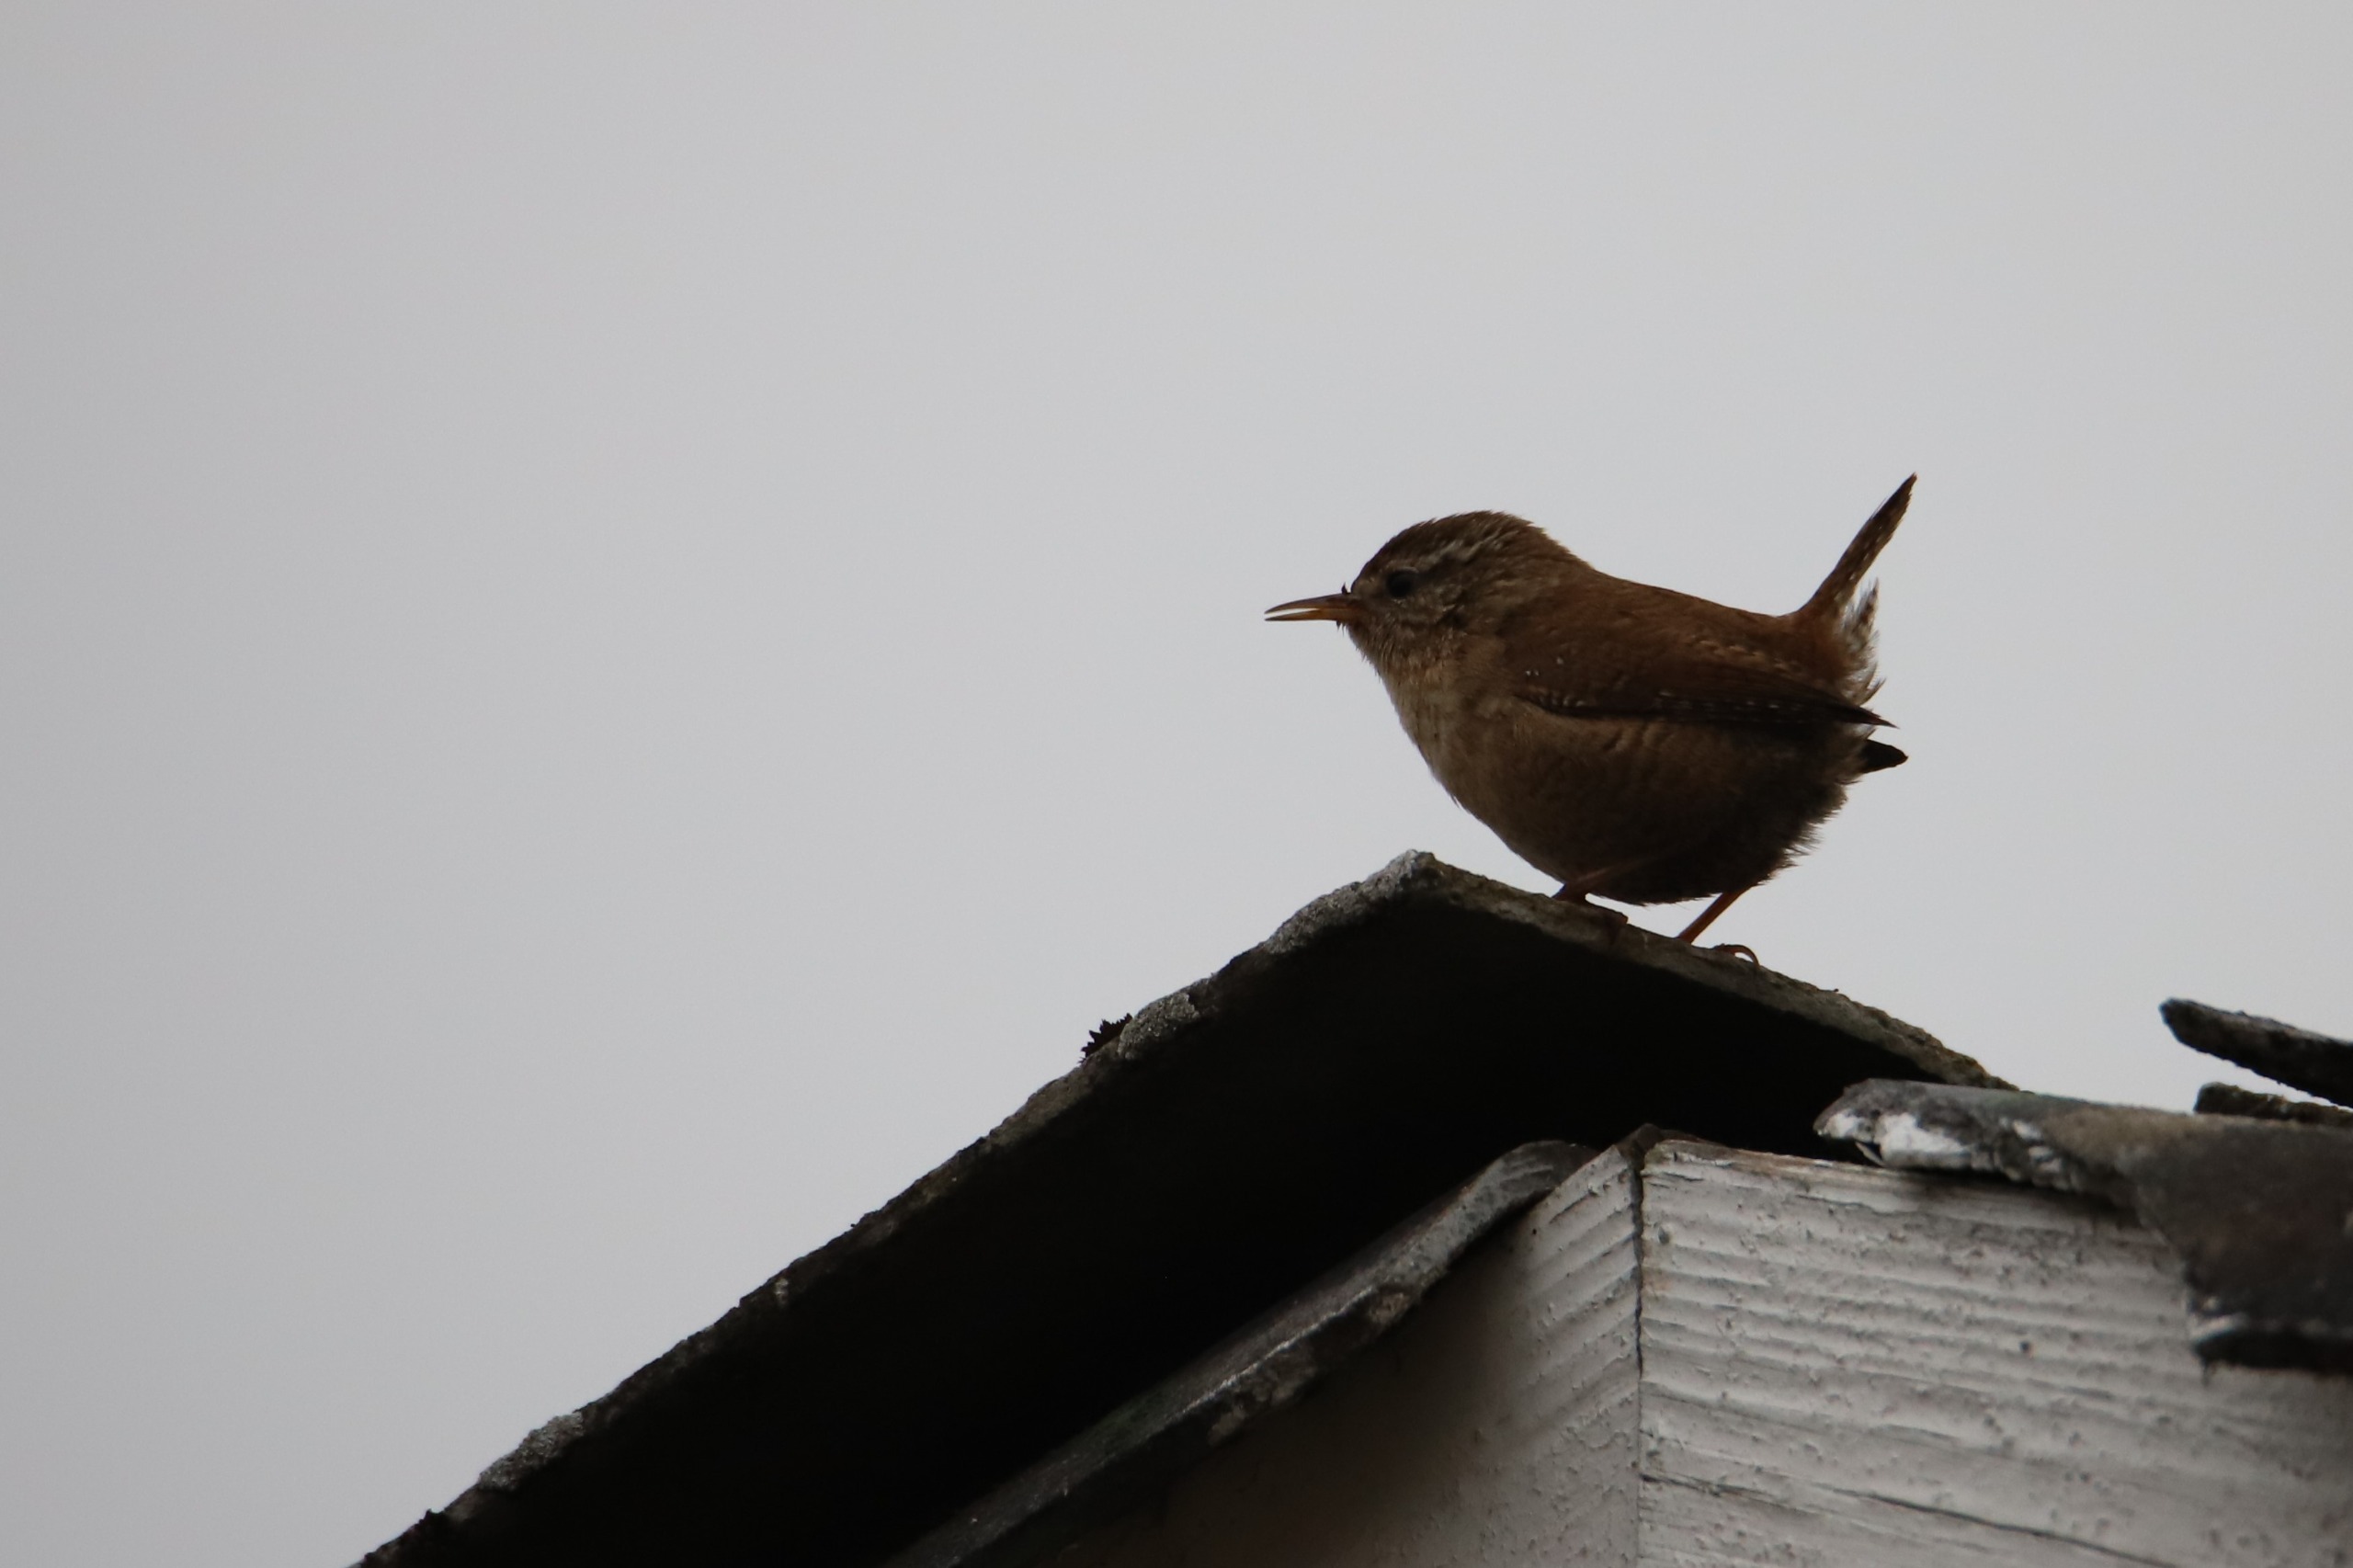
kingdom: Animalia
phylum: Chordata
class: Aves
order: Passeriformes
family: Troglodytidae
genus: Troglodytes
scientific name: Troglodytes troglodytes
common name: Gærdesmutte
